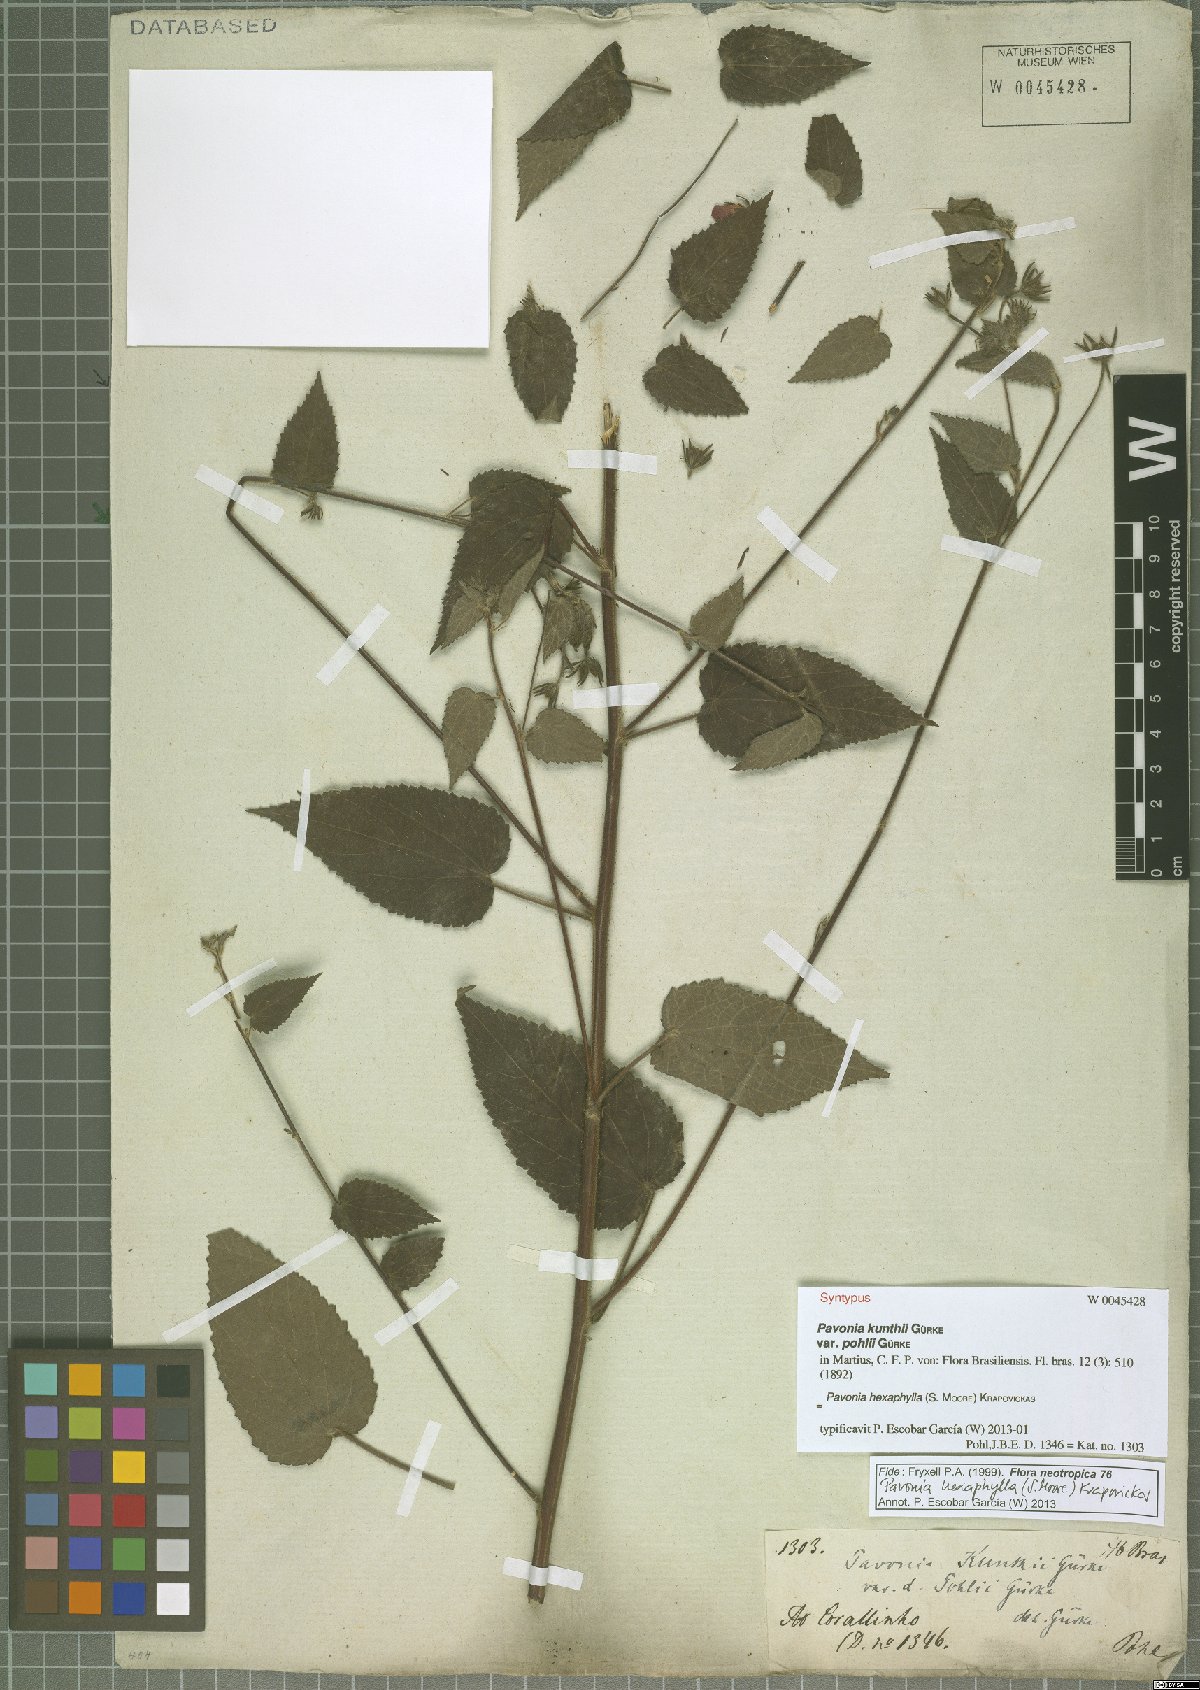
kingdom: Plantae
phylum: Tracheophyta
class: Magnoliopsida
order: Malvales
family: Malvaceae
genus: Pavonia
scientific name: Pavonia hexaphylla
